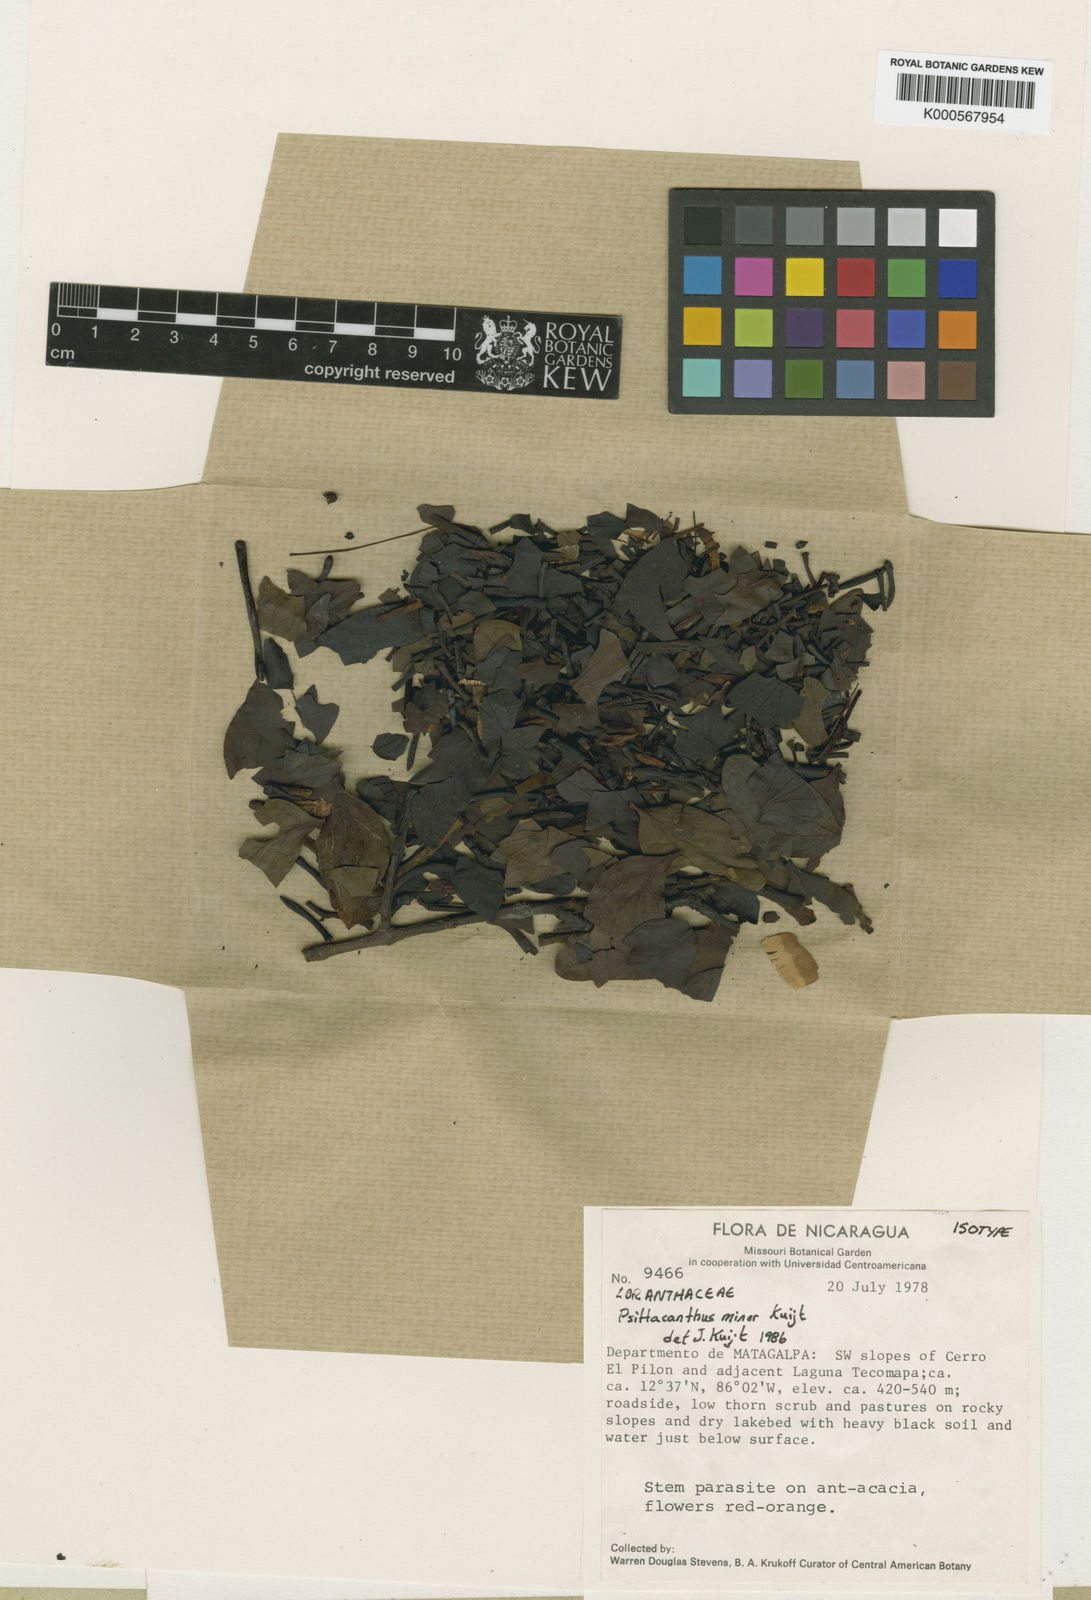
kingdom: Plantae
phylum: Tracheophyta
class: Magnoliopsida
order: Santalales
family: Loranthaceae
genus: Psittacanthus
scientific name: Psittacanthus minor
